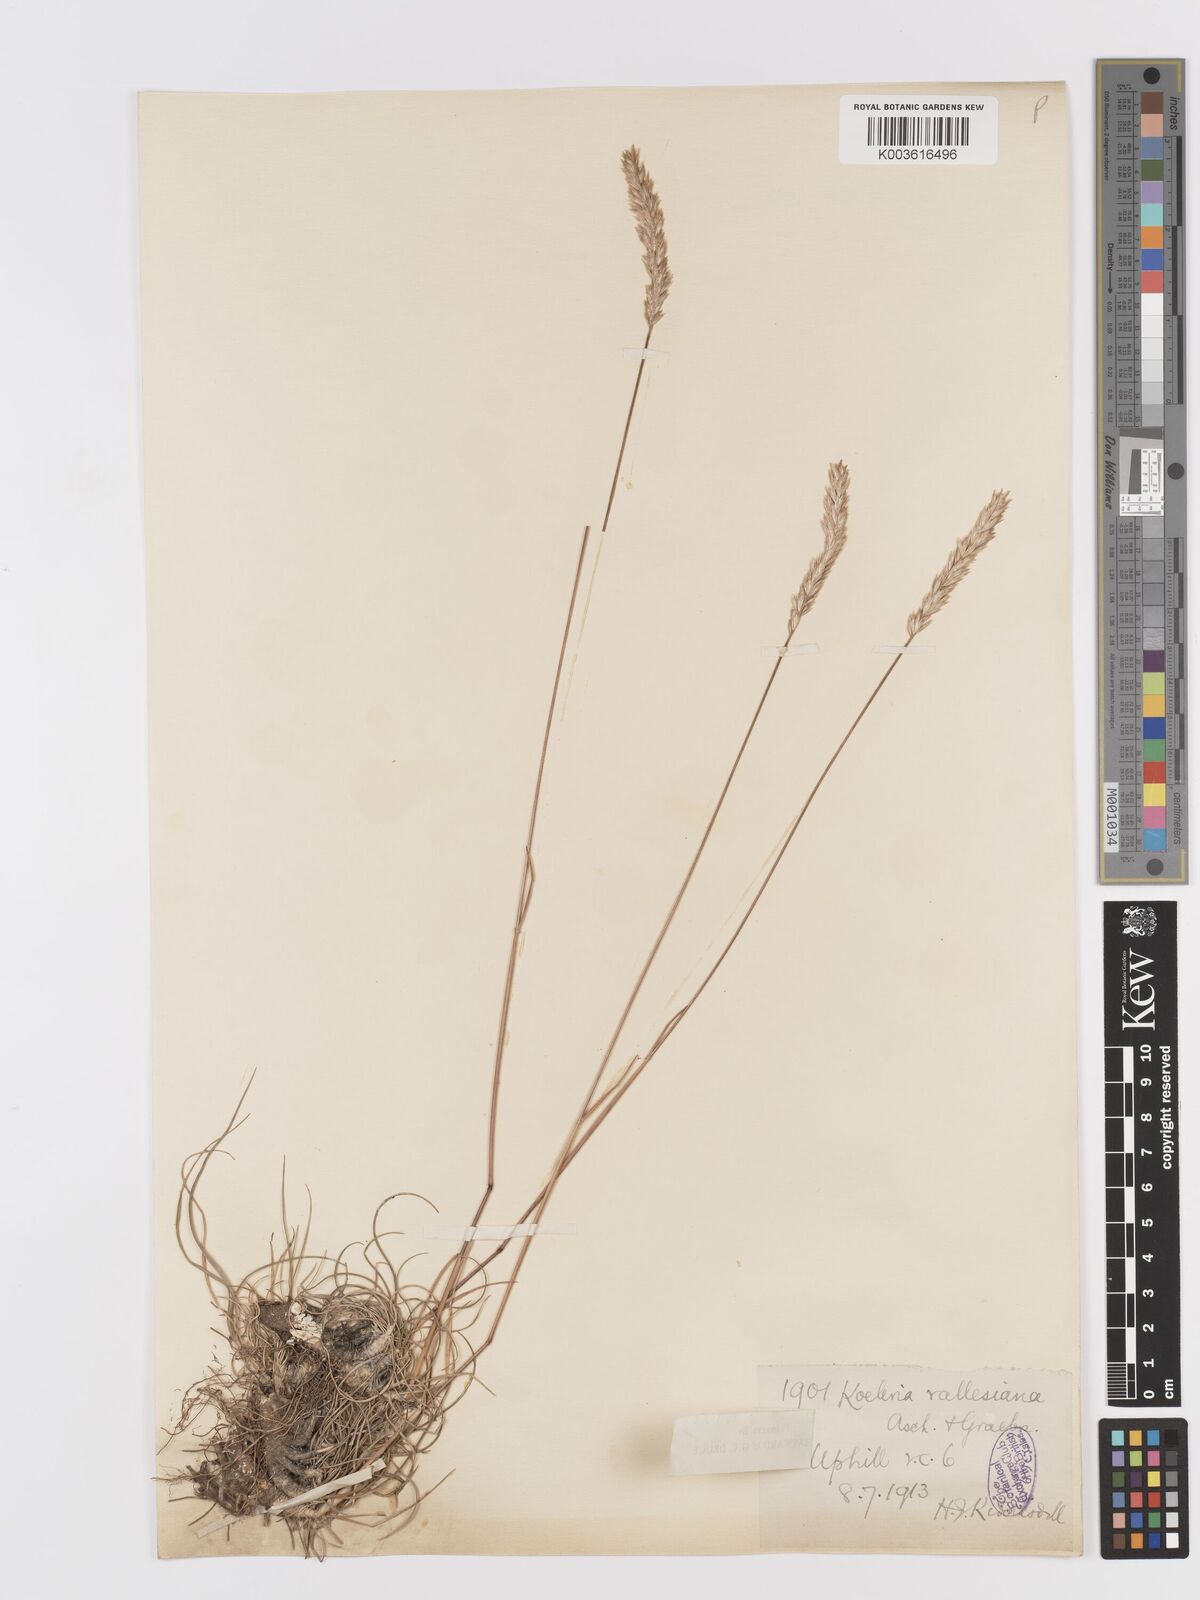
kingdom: Plantae
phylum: Tracheophyta
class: Liliopsida
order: Poales
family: Poaceae
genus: Koeleria
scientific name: Koeleria vallesiana
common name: Somerset hair-grass
